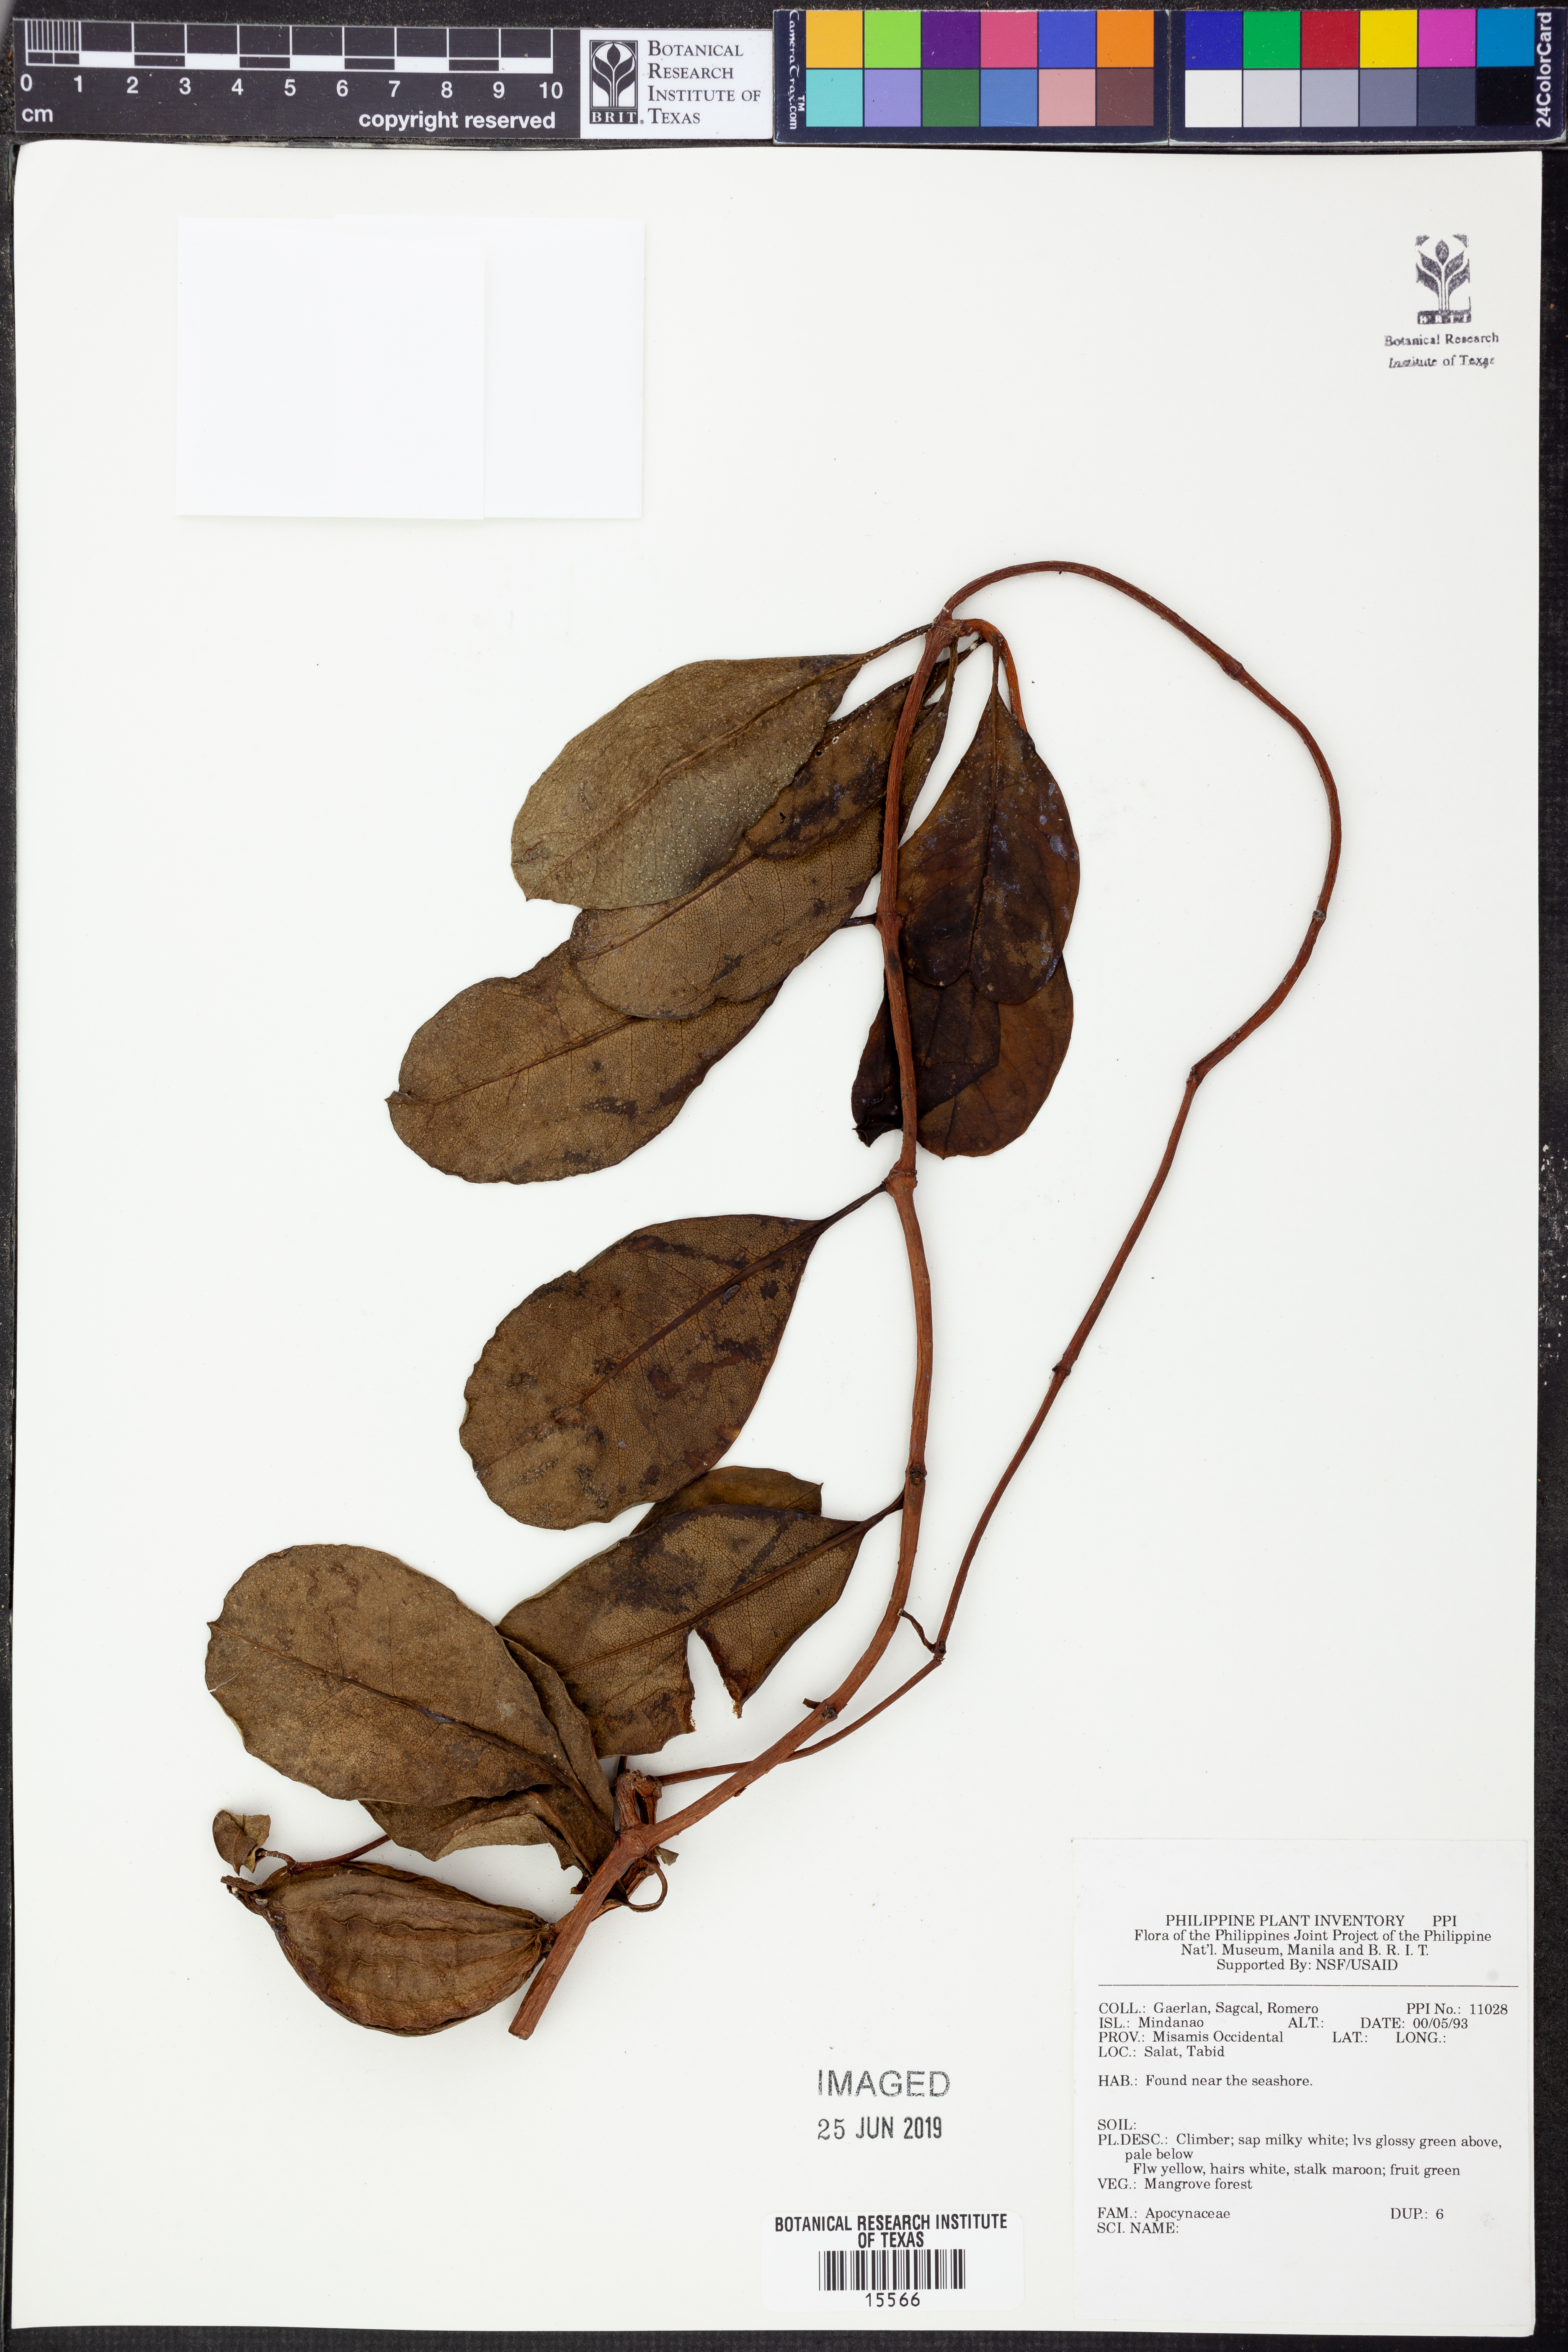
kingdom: Plantae
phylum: Tracheophyta
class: Magnoliopsida
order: Gentianales
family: Apocynaceae
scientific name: Apocynaceae
